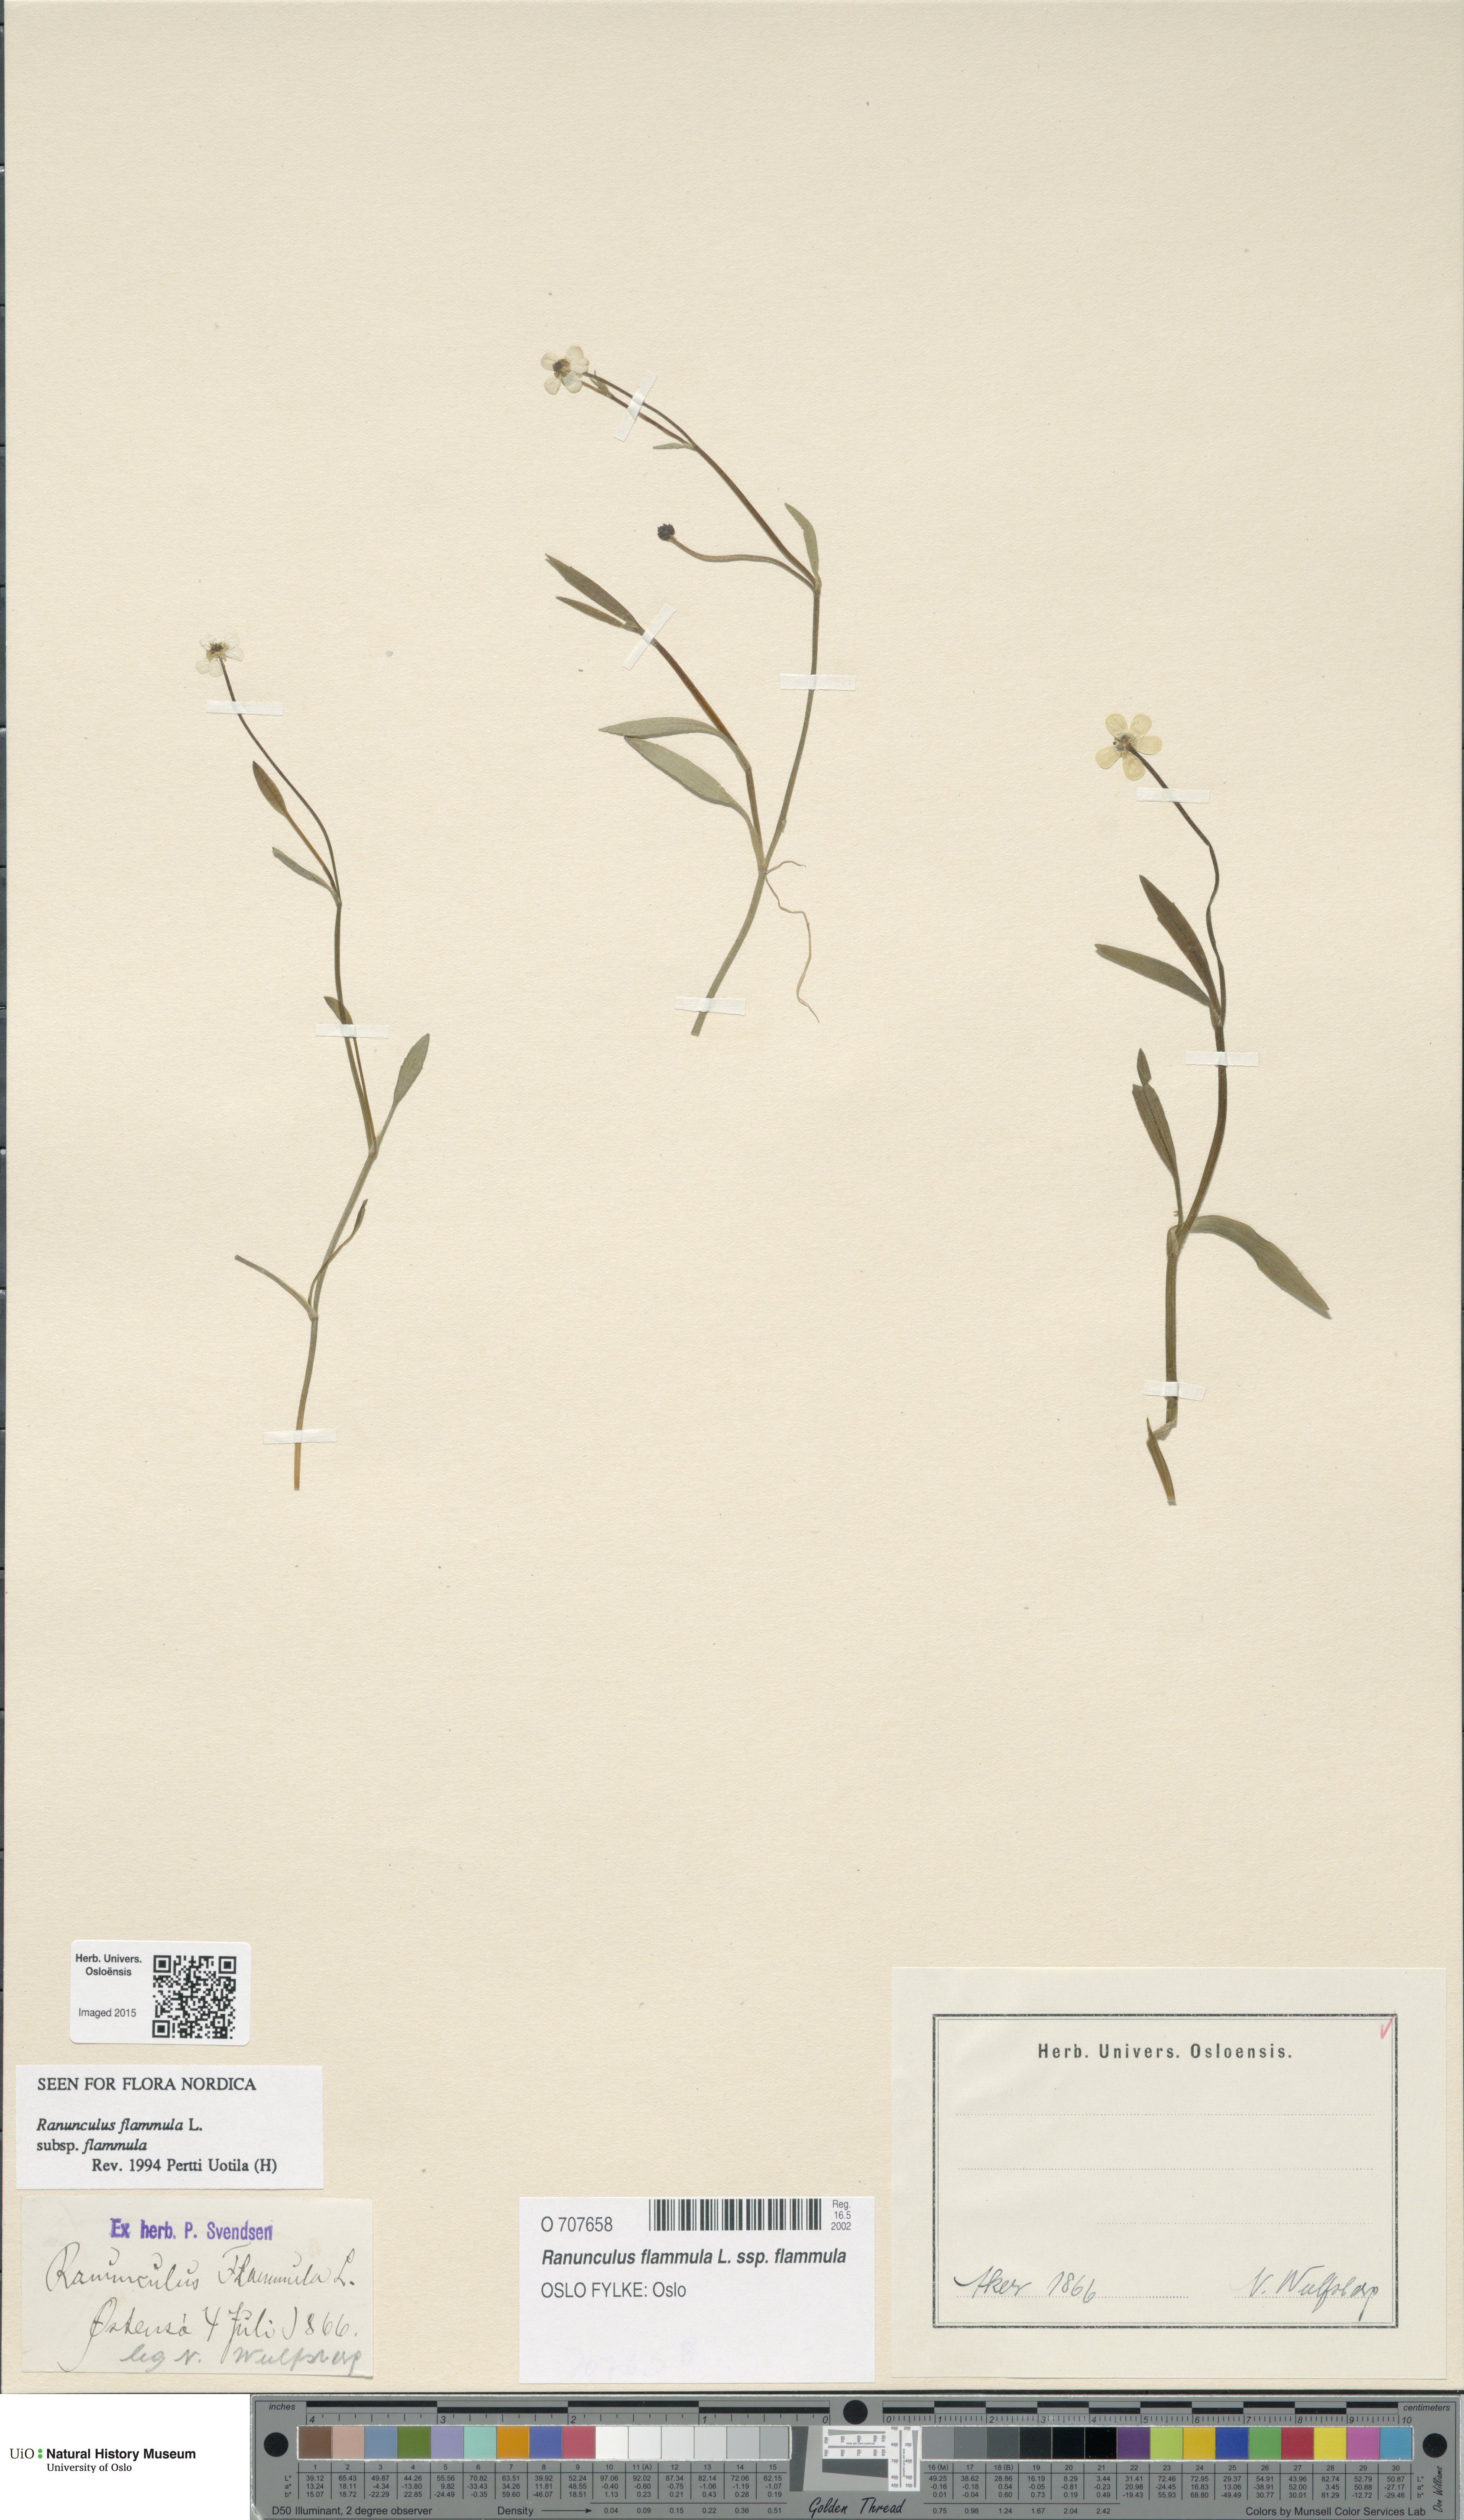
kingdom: Plantae
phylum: Tracheophyta
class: Magnoliopsida
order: Ranunculales
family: Ranunculaceae
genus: Ranunculus
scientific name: Ranunculus flammula
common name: Lesser spearwort
